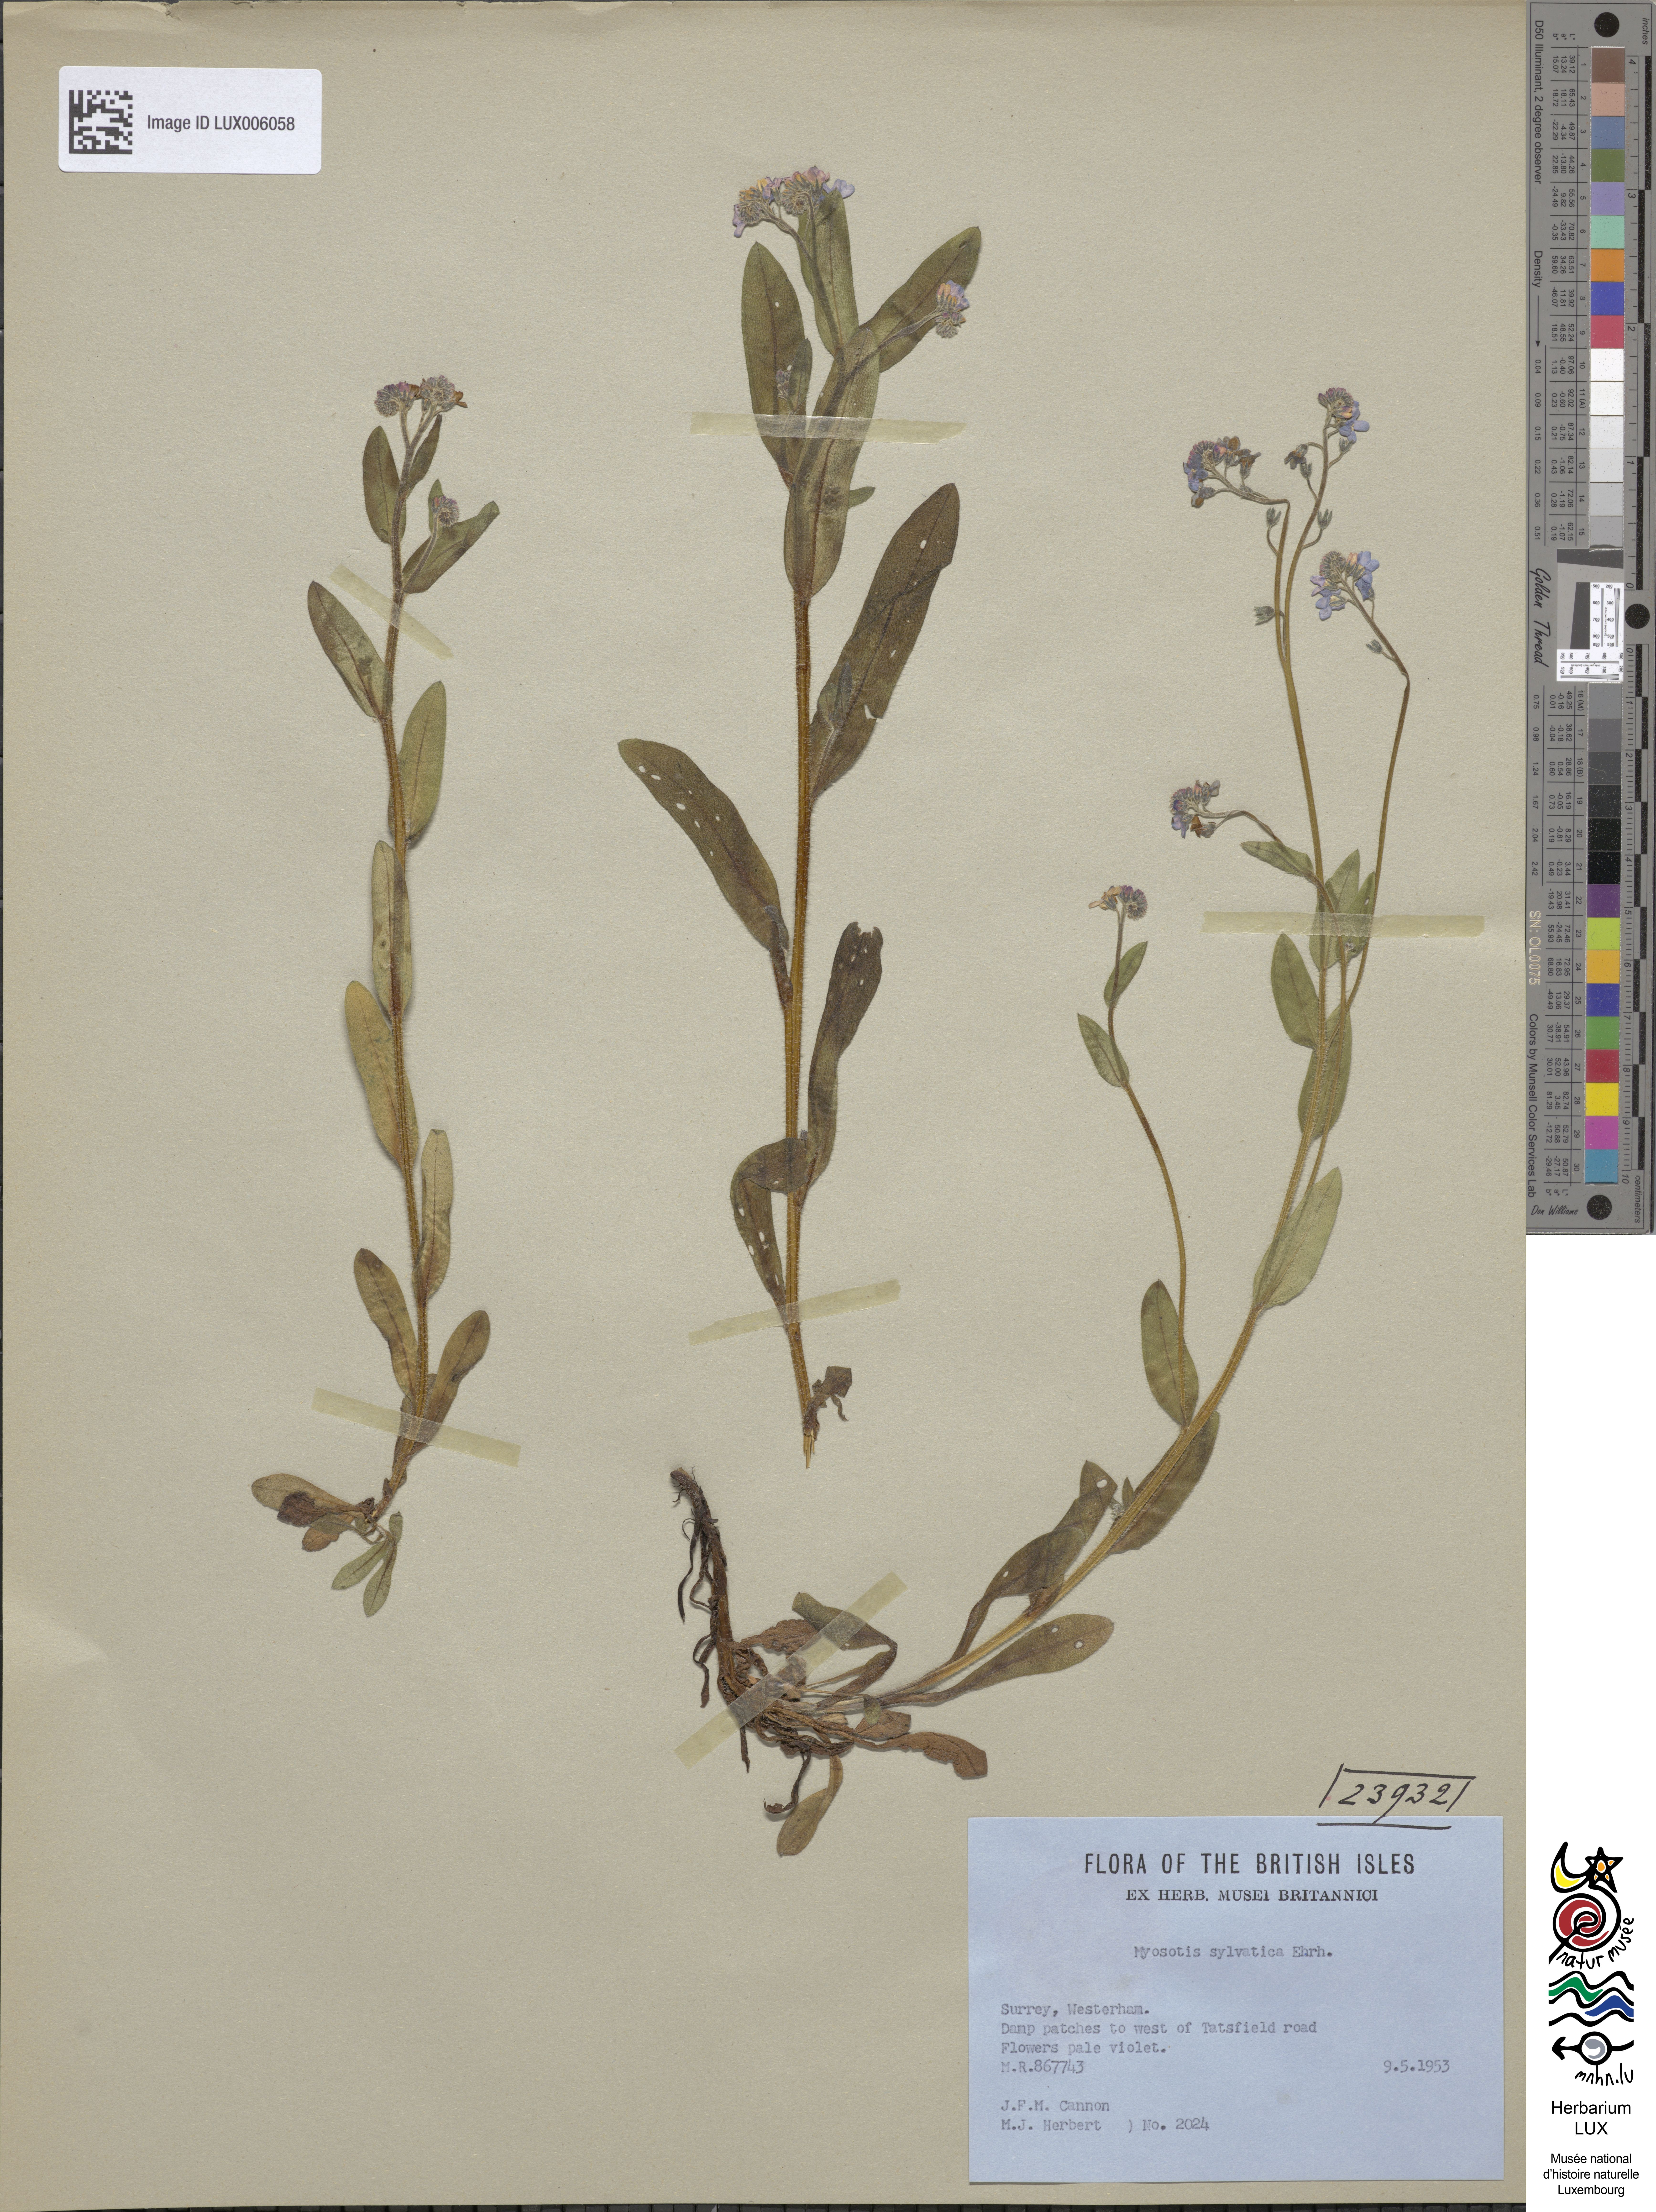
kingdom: Plantae
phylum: Tracheophyta
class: Magnoliopsida
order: Boraginales
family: Boraginaceae
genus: Myosotis
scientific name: Myosotis sylvatica
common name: Wood forget-me-not
